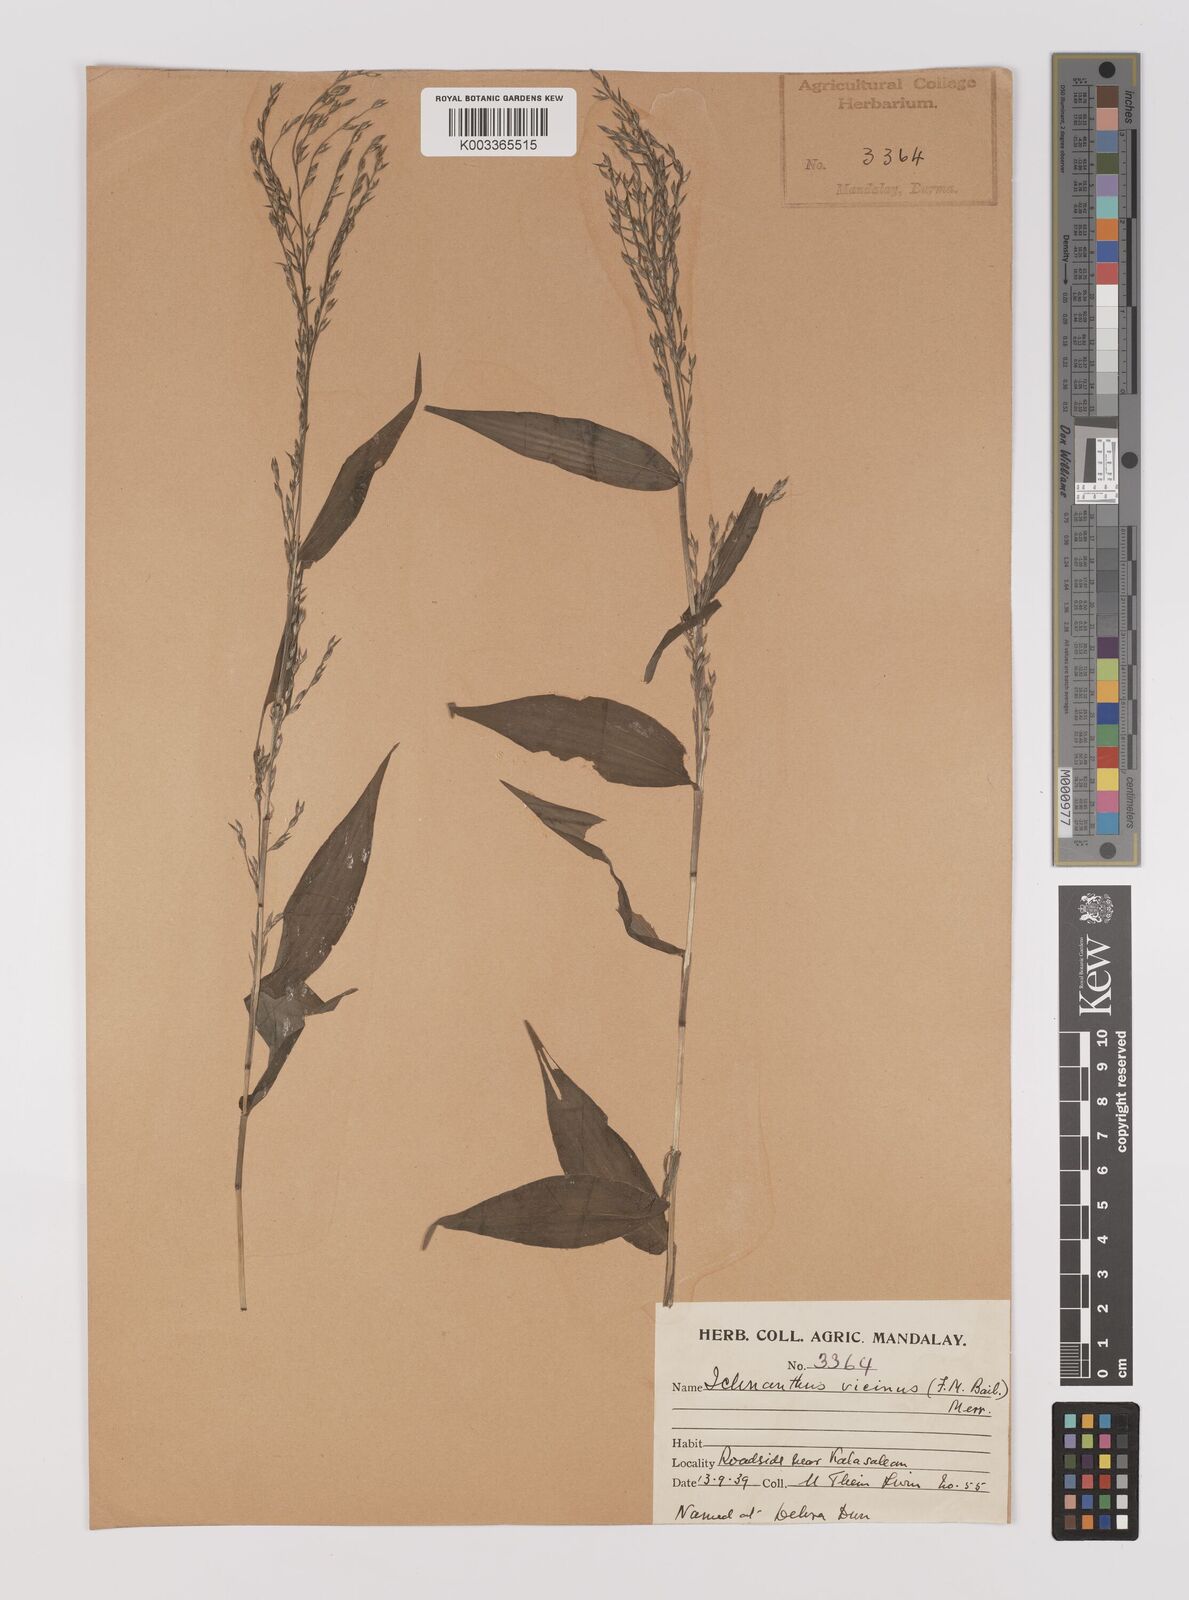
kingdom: Plantae
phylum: Tracheophyta
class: Liliopsida
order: Poales
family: Poaceae
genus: Ichnanthus
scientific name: Ichnanthus pallens
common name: Water grass
